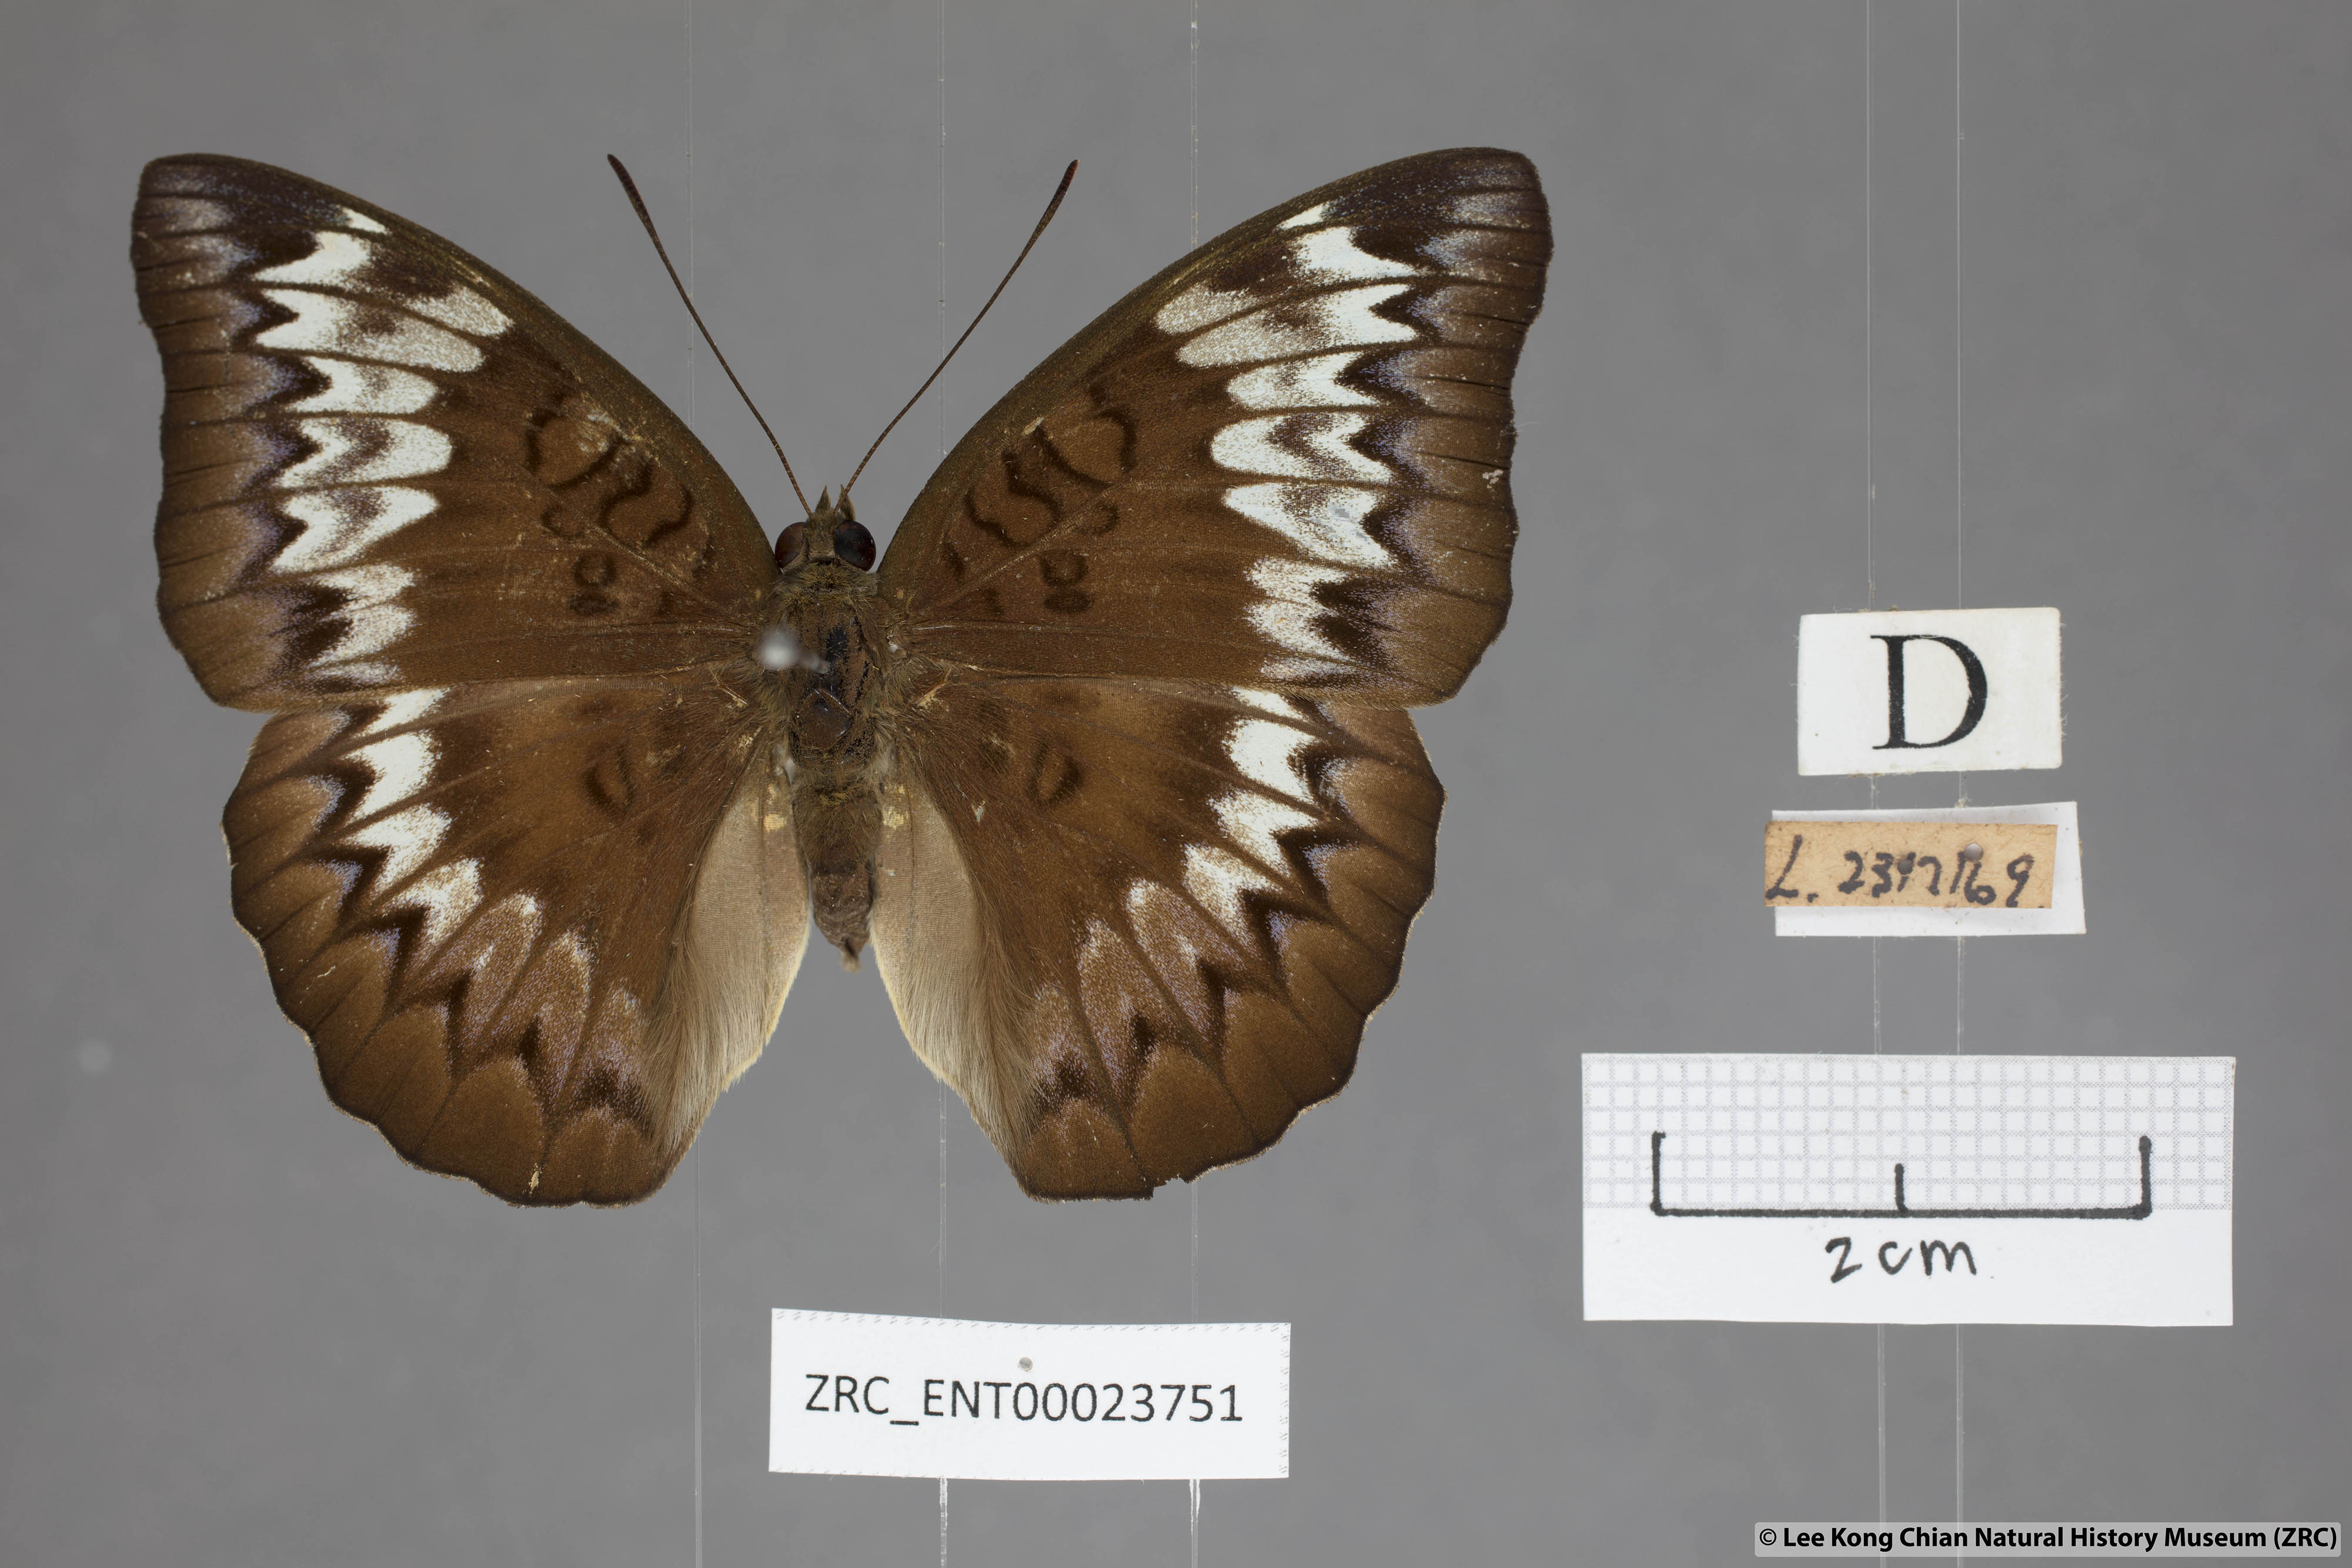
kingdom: Animalia
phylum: Arthropoda
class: Insecta
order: Lepidoptera
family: Nymphalidae
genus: Euthalia
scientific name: Euthalia monina
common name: Powdered baron
